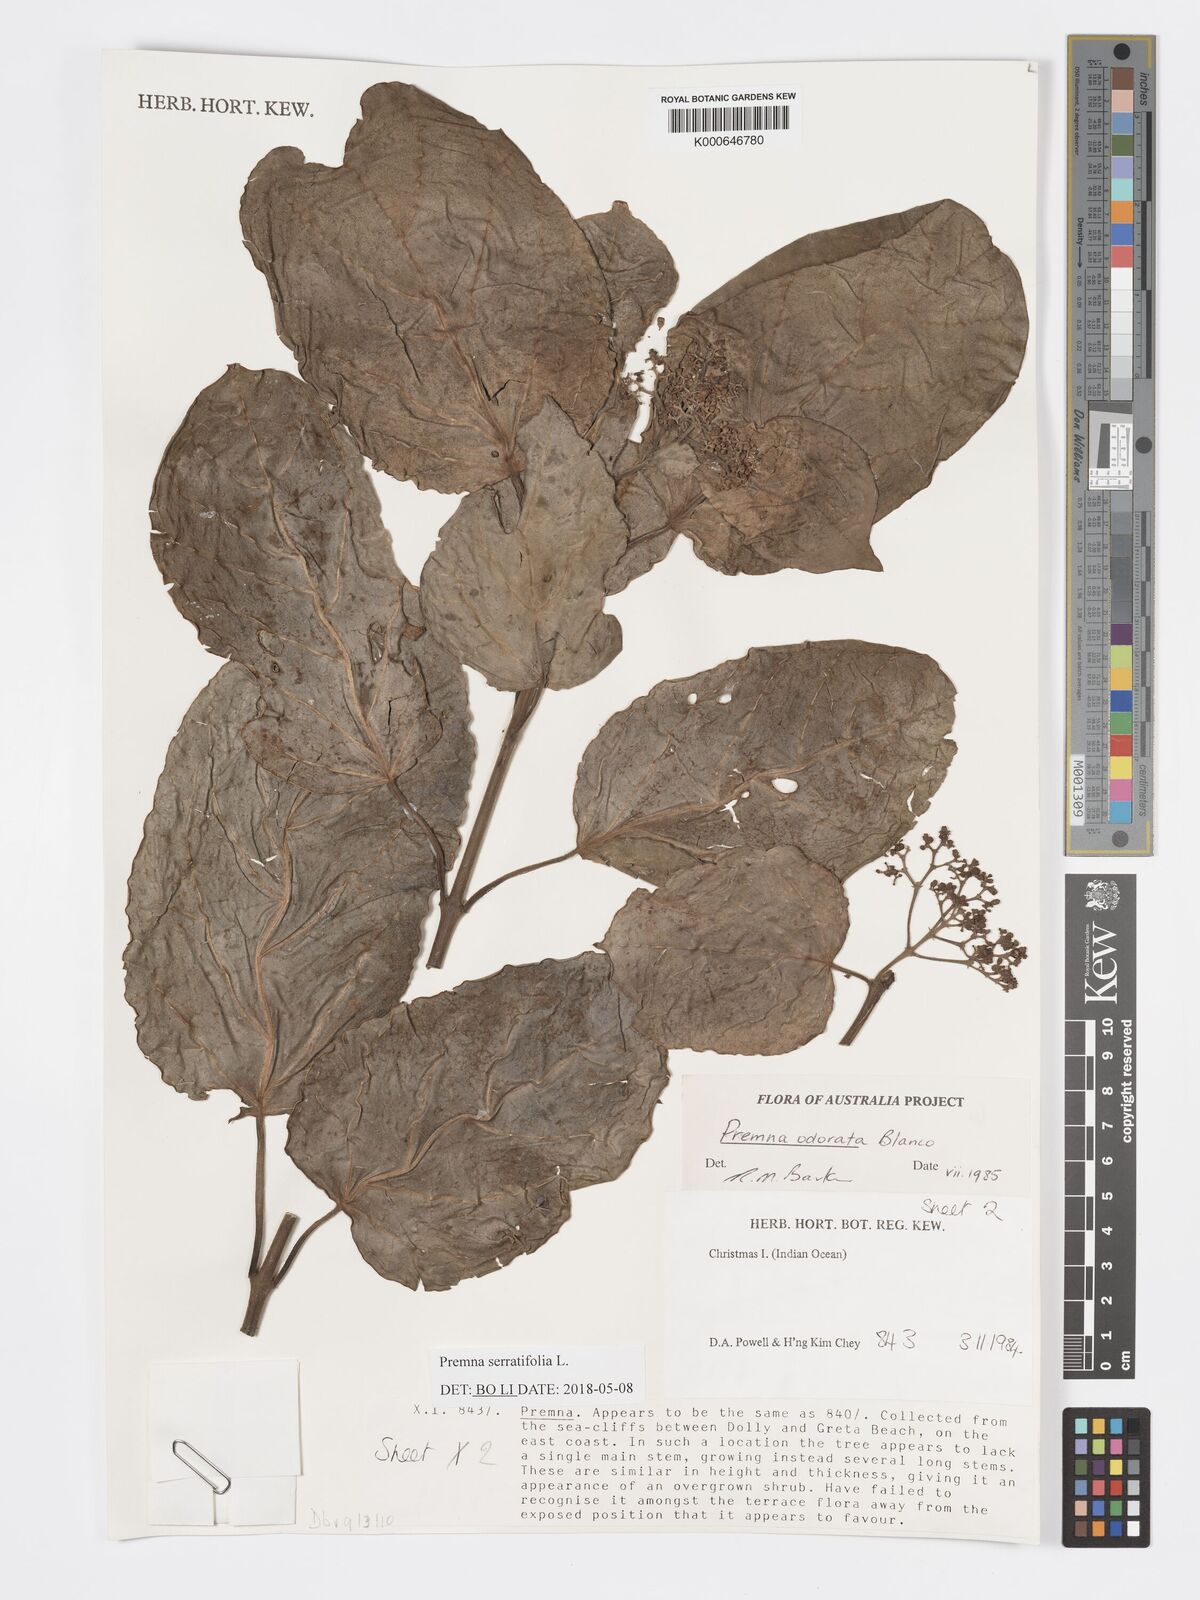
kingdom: Plantae
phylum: Tracheophyta
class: Magnoliopsida
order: Lamiales
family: Lamiaceae
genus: Premna
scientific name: Premna odorata
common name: Fragrant premna
